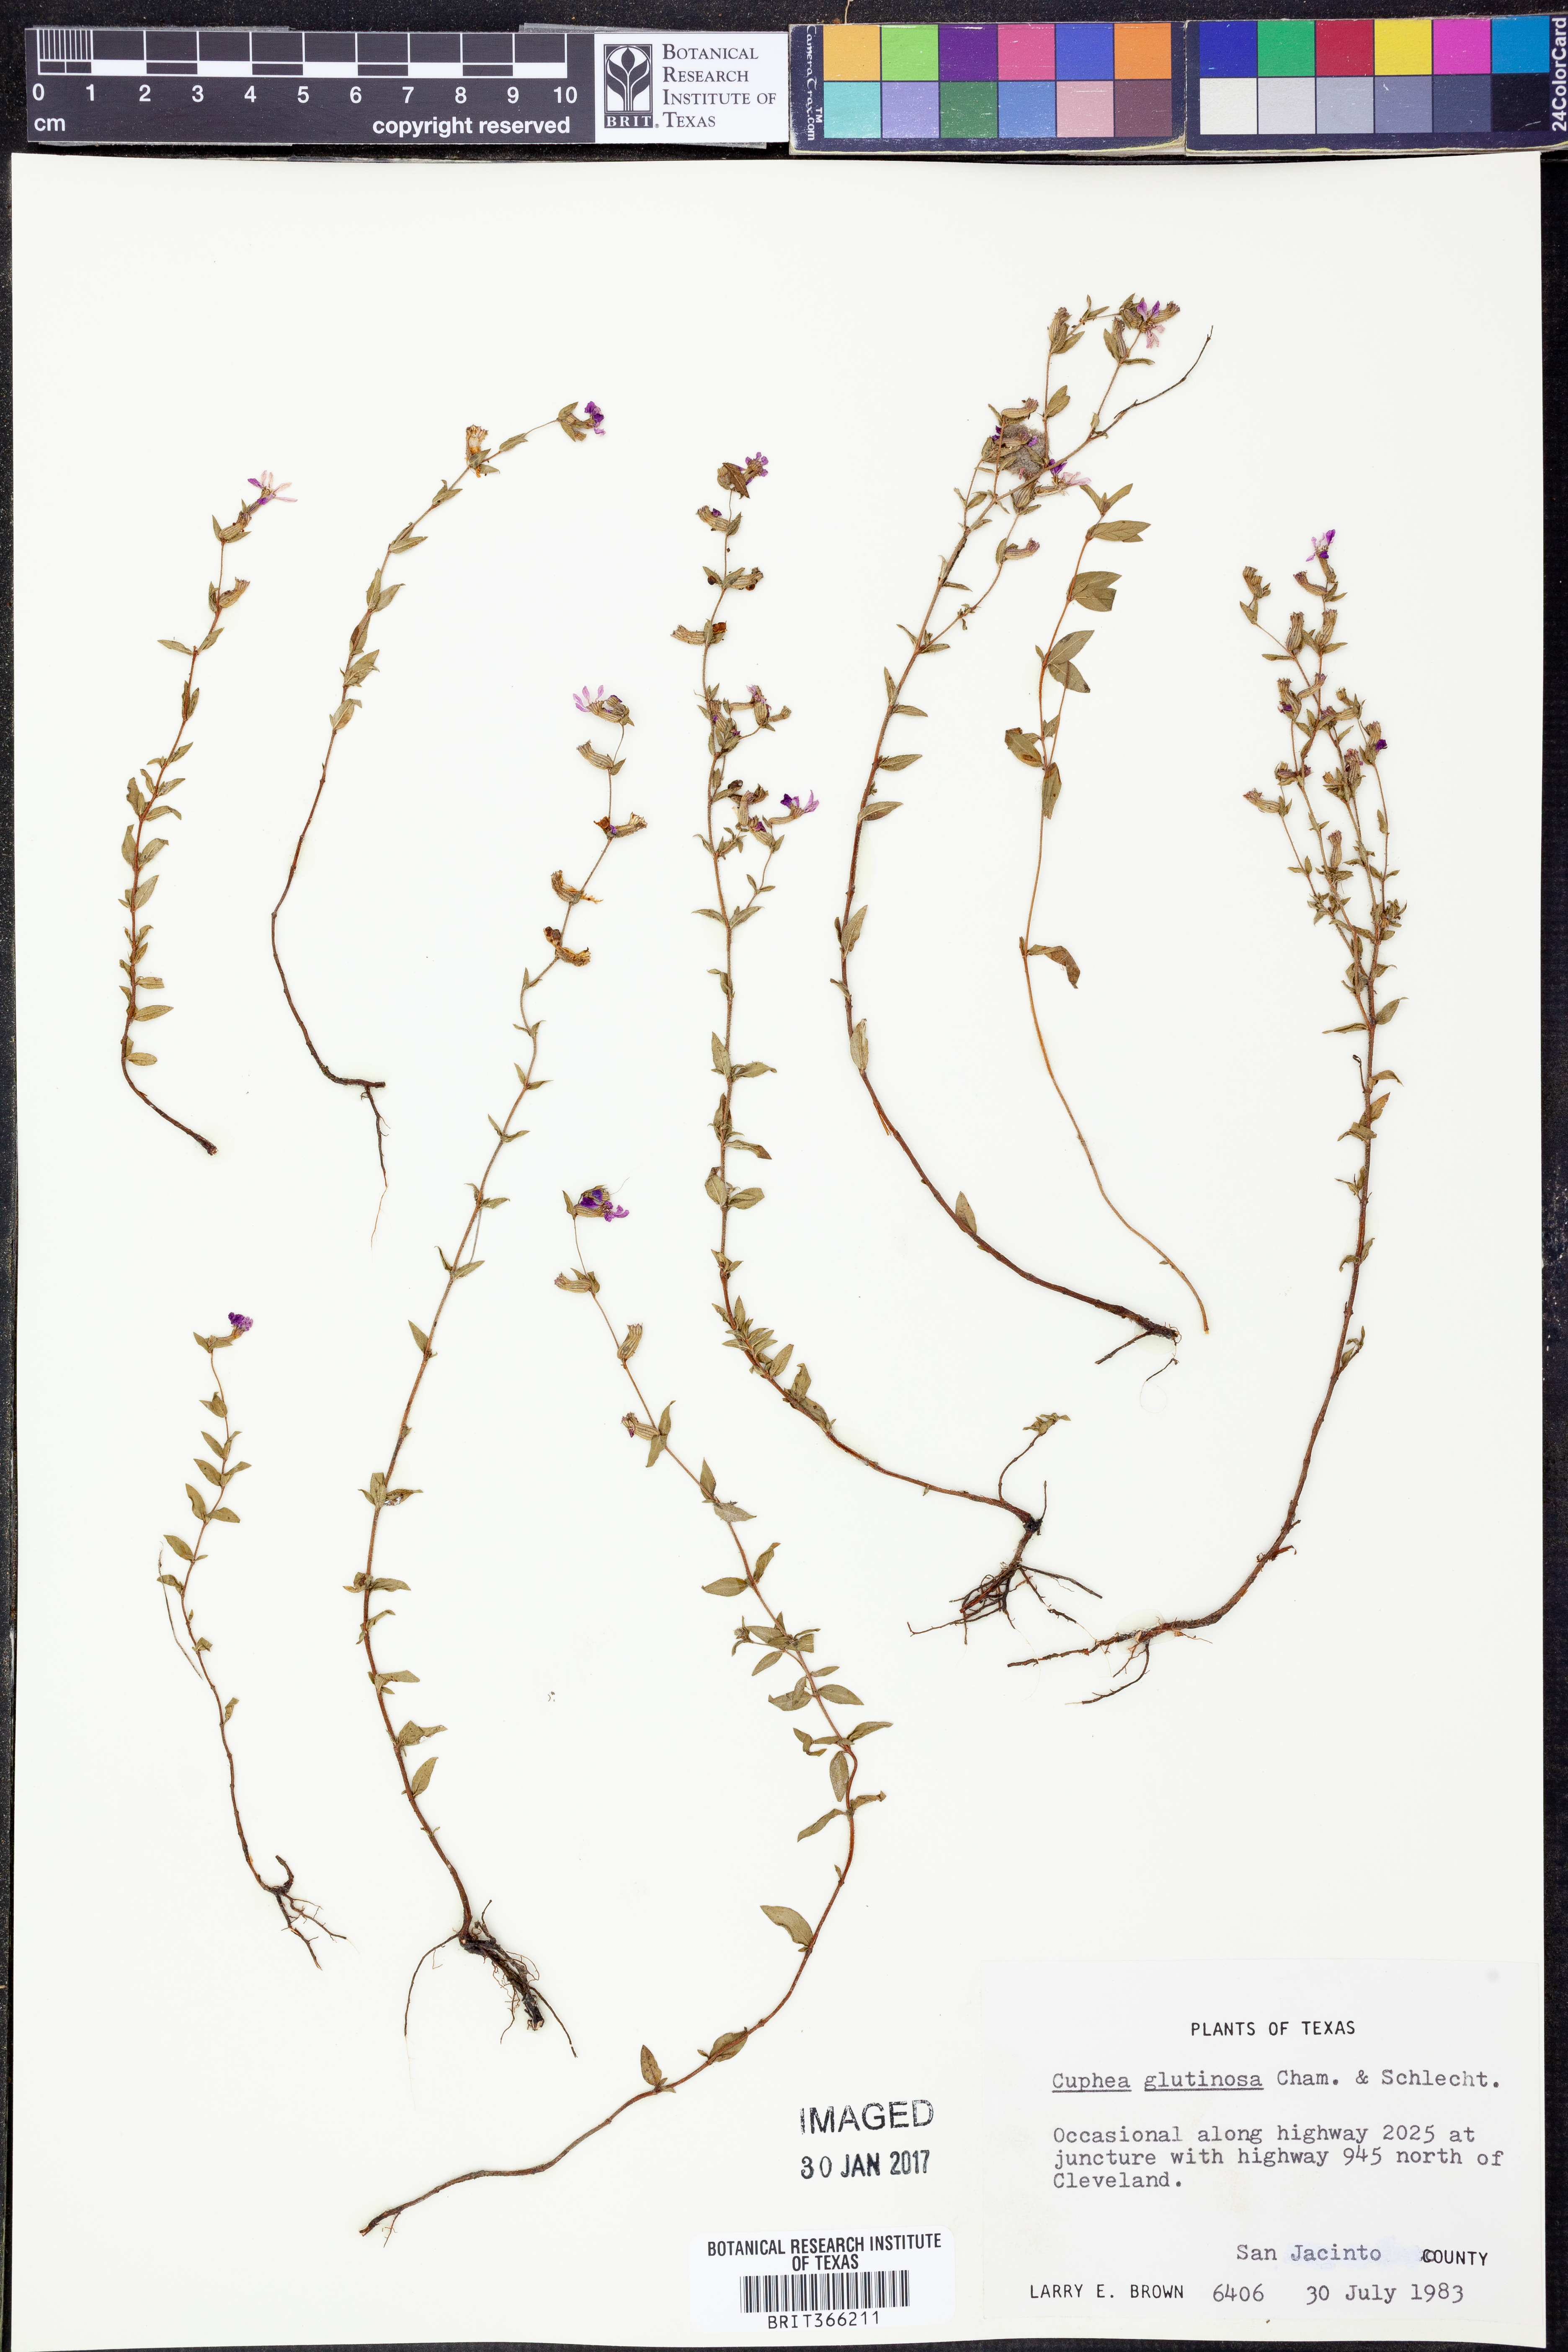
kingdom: Plantae
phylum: Tracheophyta
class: Magnoliopsida
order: Myrtales
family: Lythraceae
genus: Cuphea
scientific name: Cuphea glutinosa
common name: Sticky waxweed
